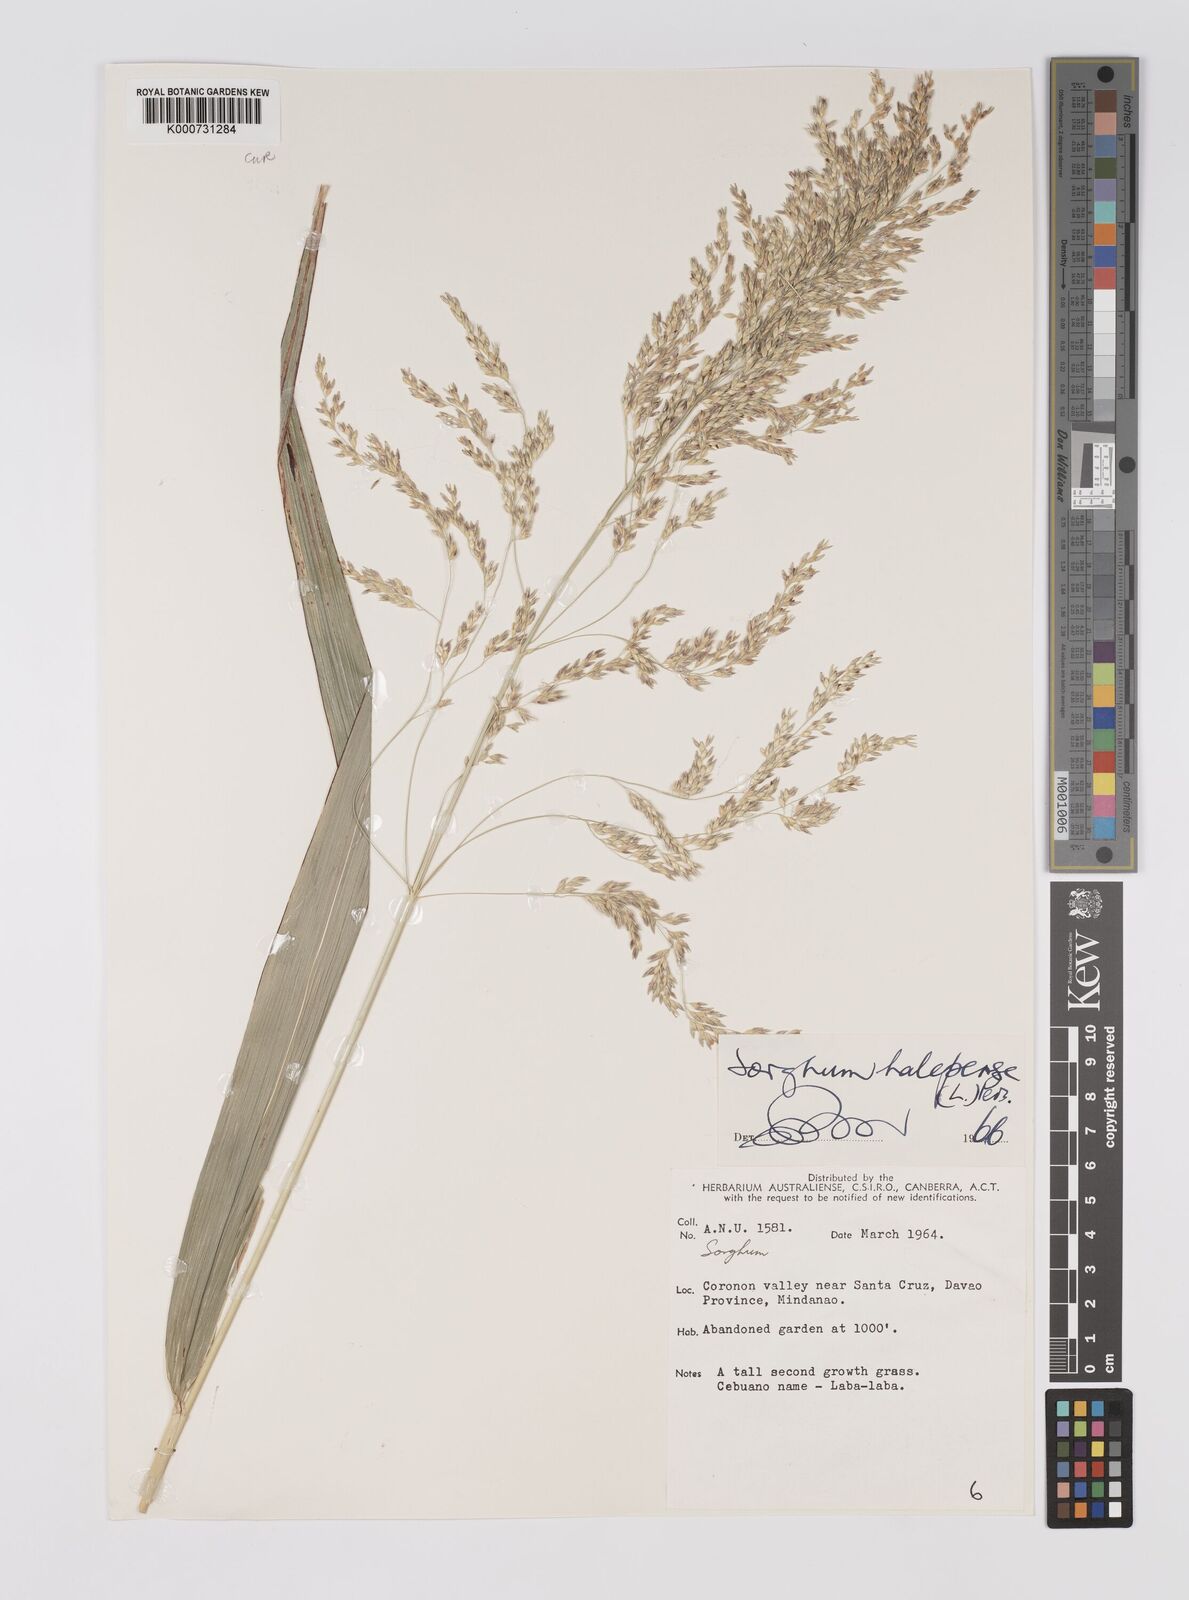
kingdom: Plantae
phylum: Tracheophyta
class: Liliopsida
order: Poales
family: Poaceae
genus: Sorghum
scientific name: Sorghum halepense
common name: Johnson-grass
